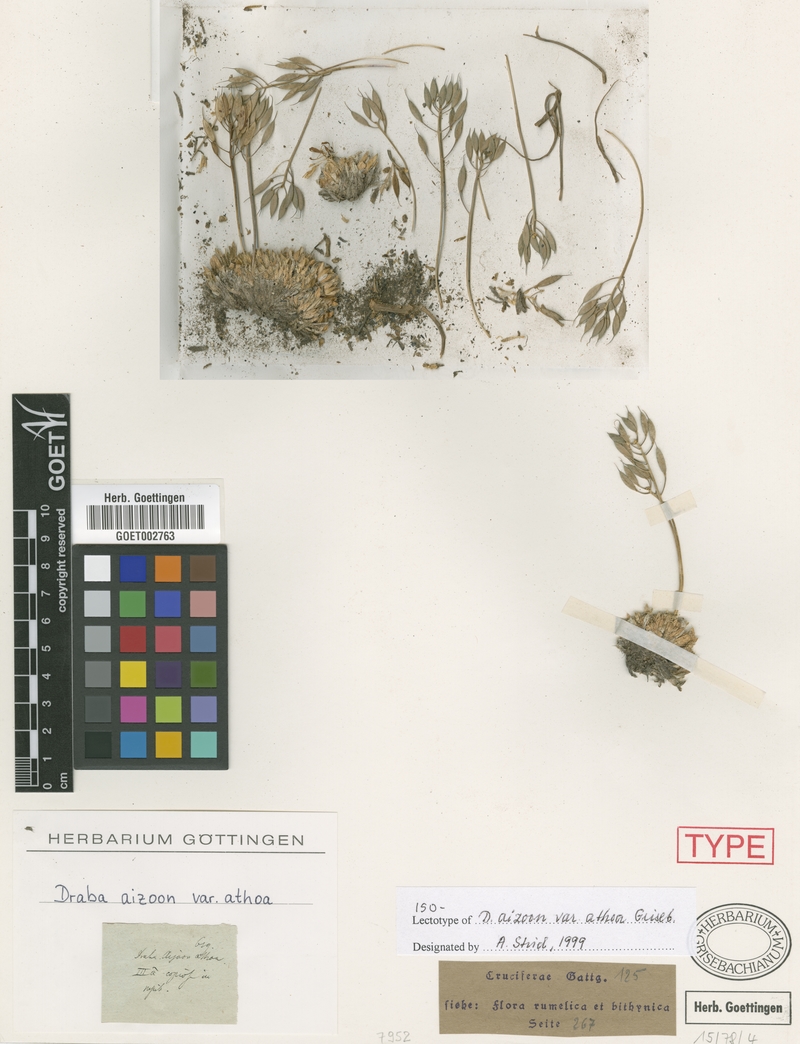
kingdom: Plantae
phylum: Tracheophyta
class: Magnoliopsida
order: Brassicales
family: Brassicaceae
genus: Draba
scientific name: Draba lasiocarpa
